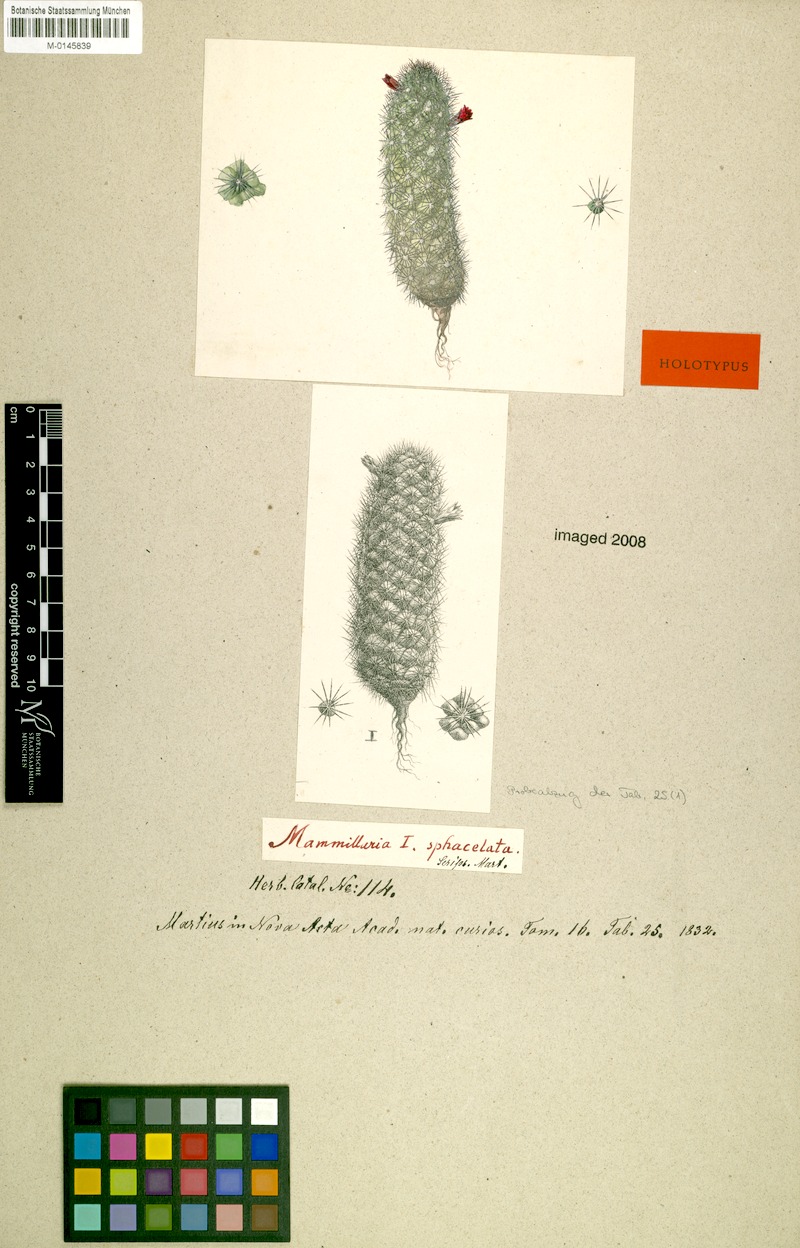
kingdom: Plantae
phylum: Tracheophyta
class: Magnoliopsida
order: Caryophyllales
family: Cactaceae
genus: Mammillaria
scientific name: Mammillaria sphacelata
